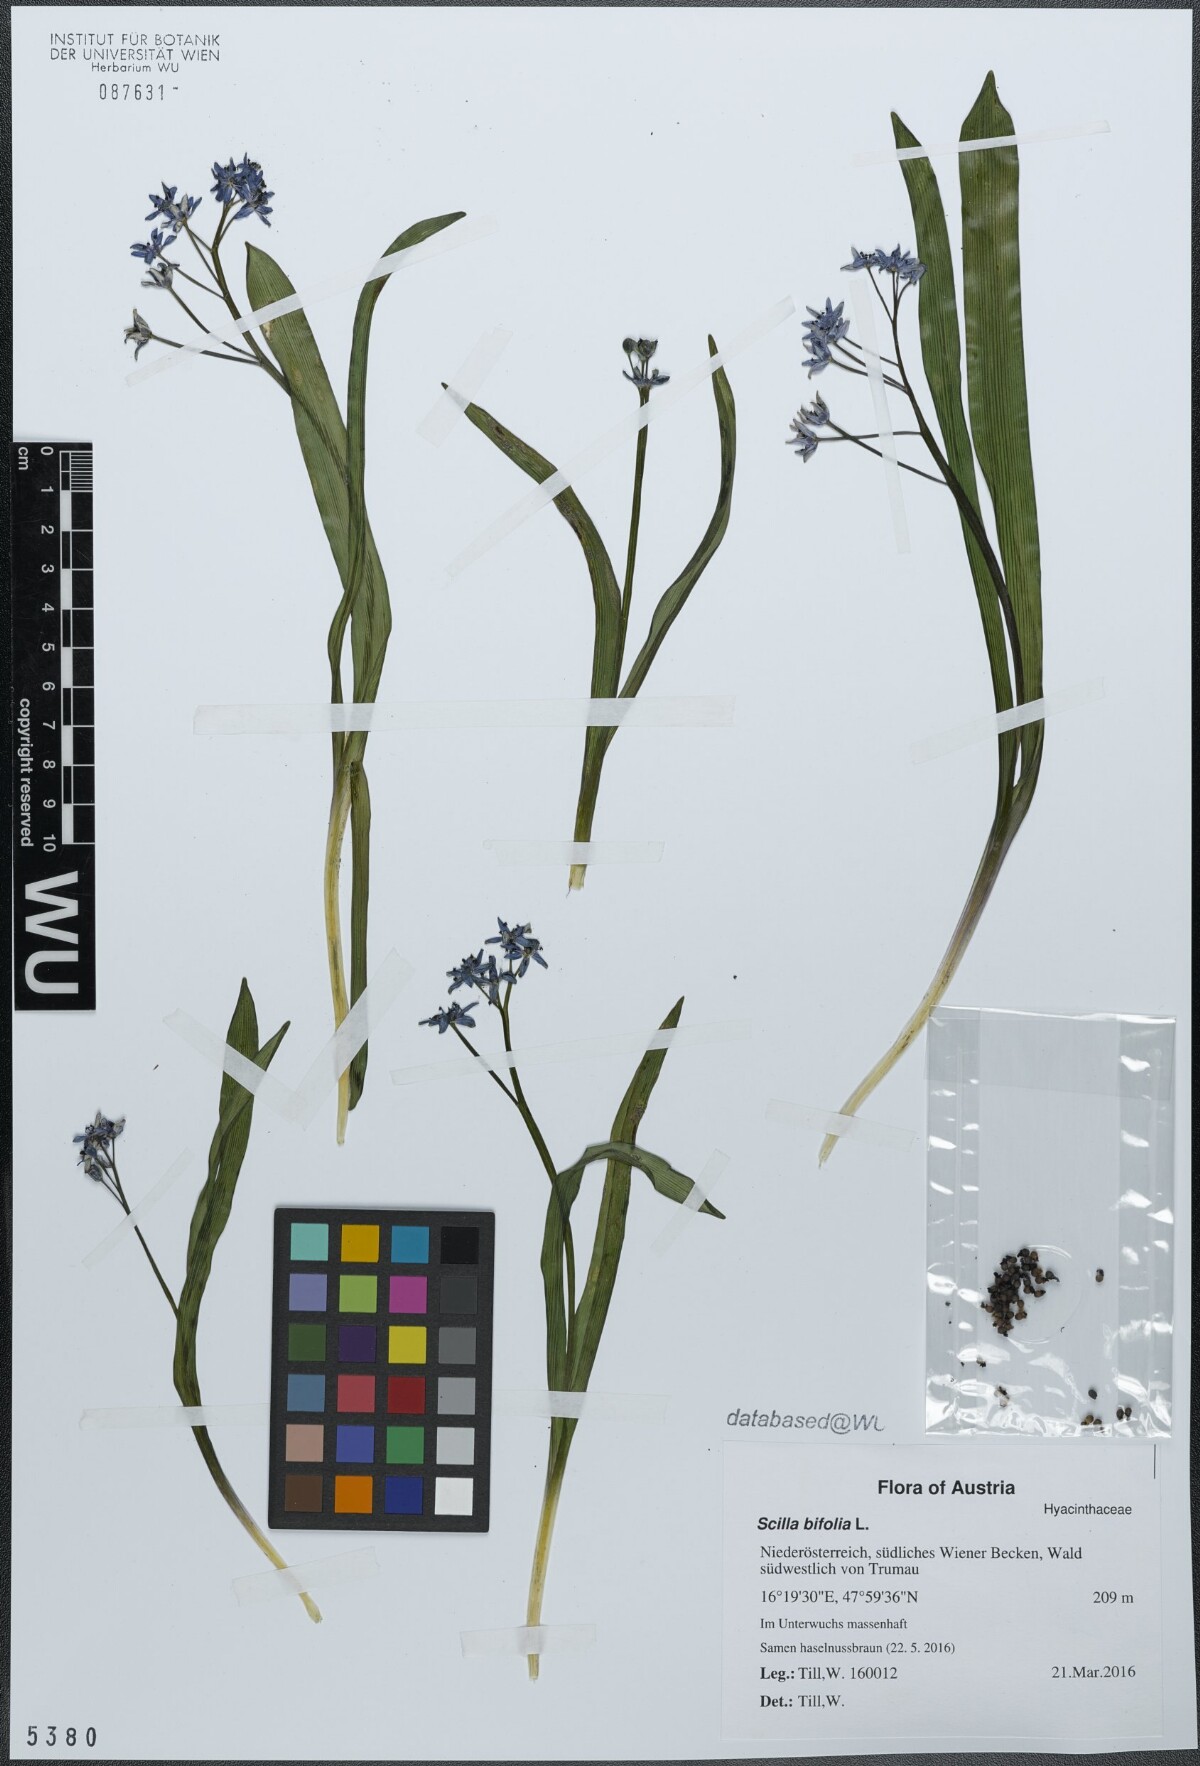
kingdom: Plantae
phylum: Tracheophyta
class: Liliopsida
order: Asparagales
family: Asparagaceae
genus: Scilla
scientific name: Scilla bifolia
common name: Alpine squill
